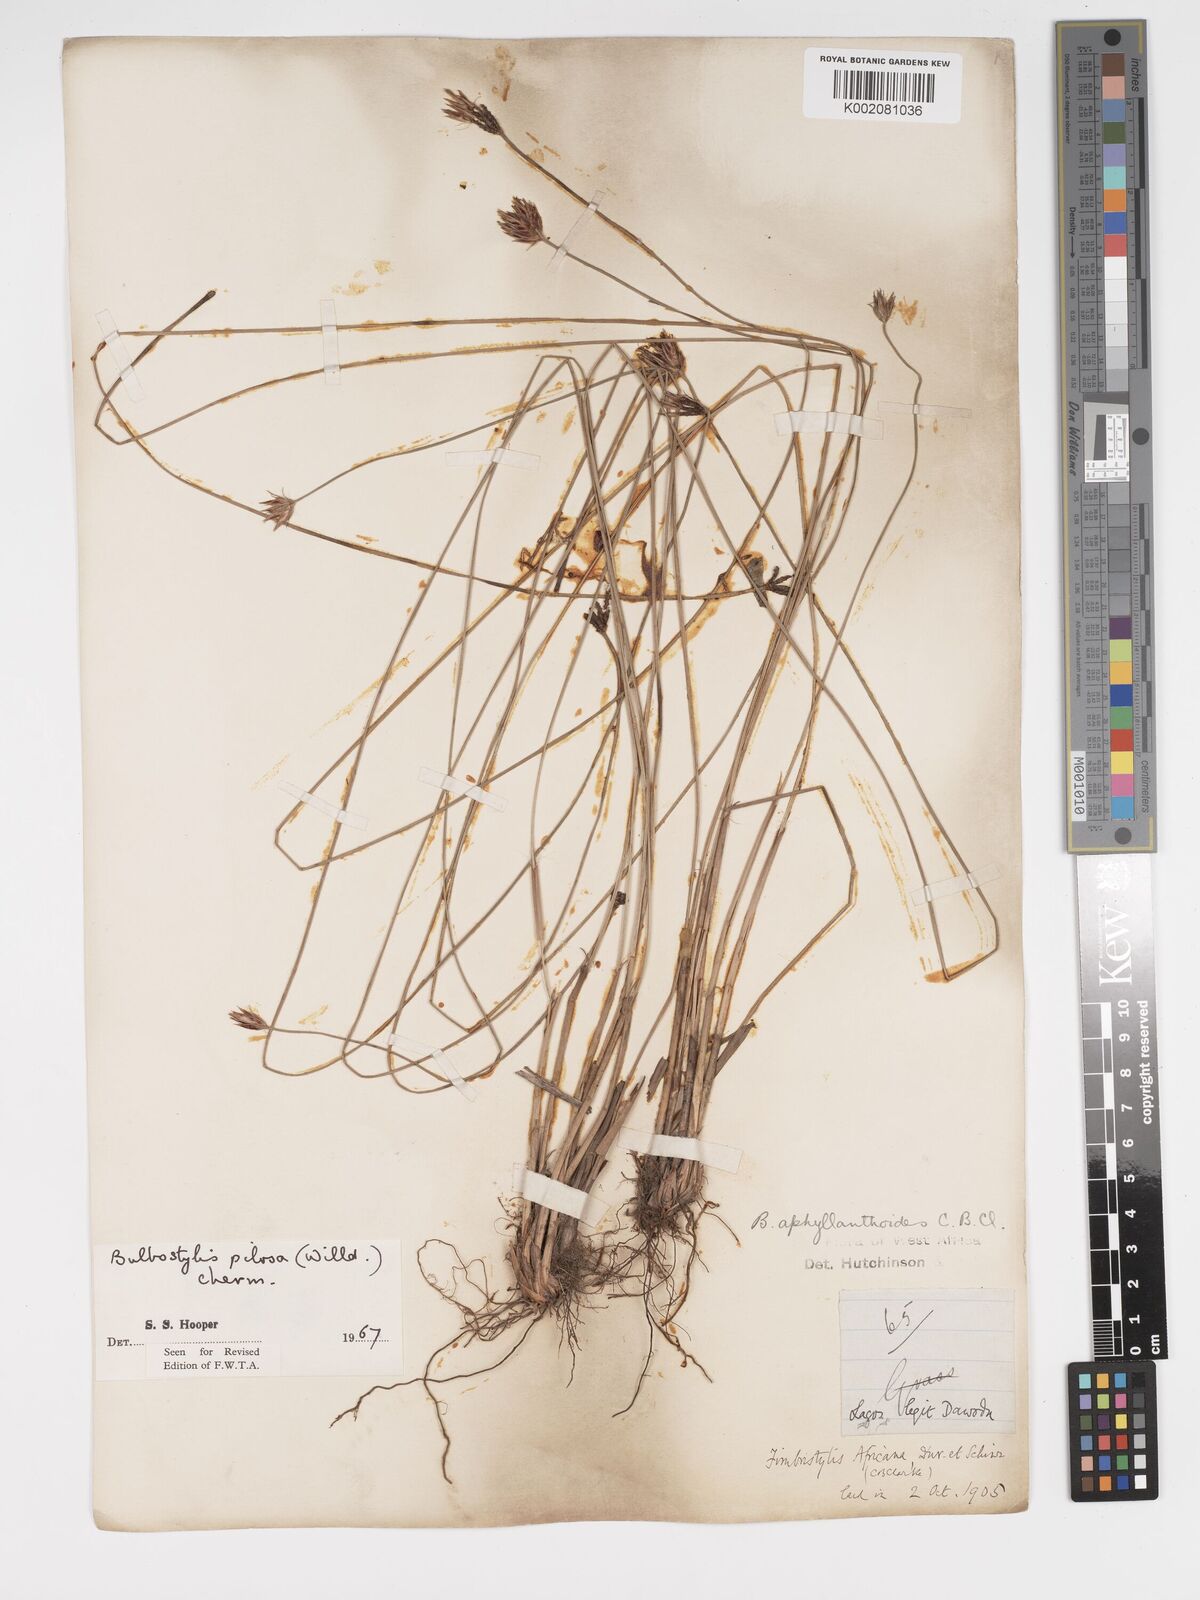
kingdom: Plantae
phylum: Tracheophyta
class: Liliopsida
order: Poales
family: Cyperaceae
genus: Bulbostylis
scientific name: Bulbostylis pilosa
